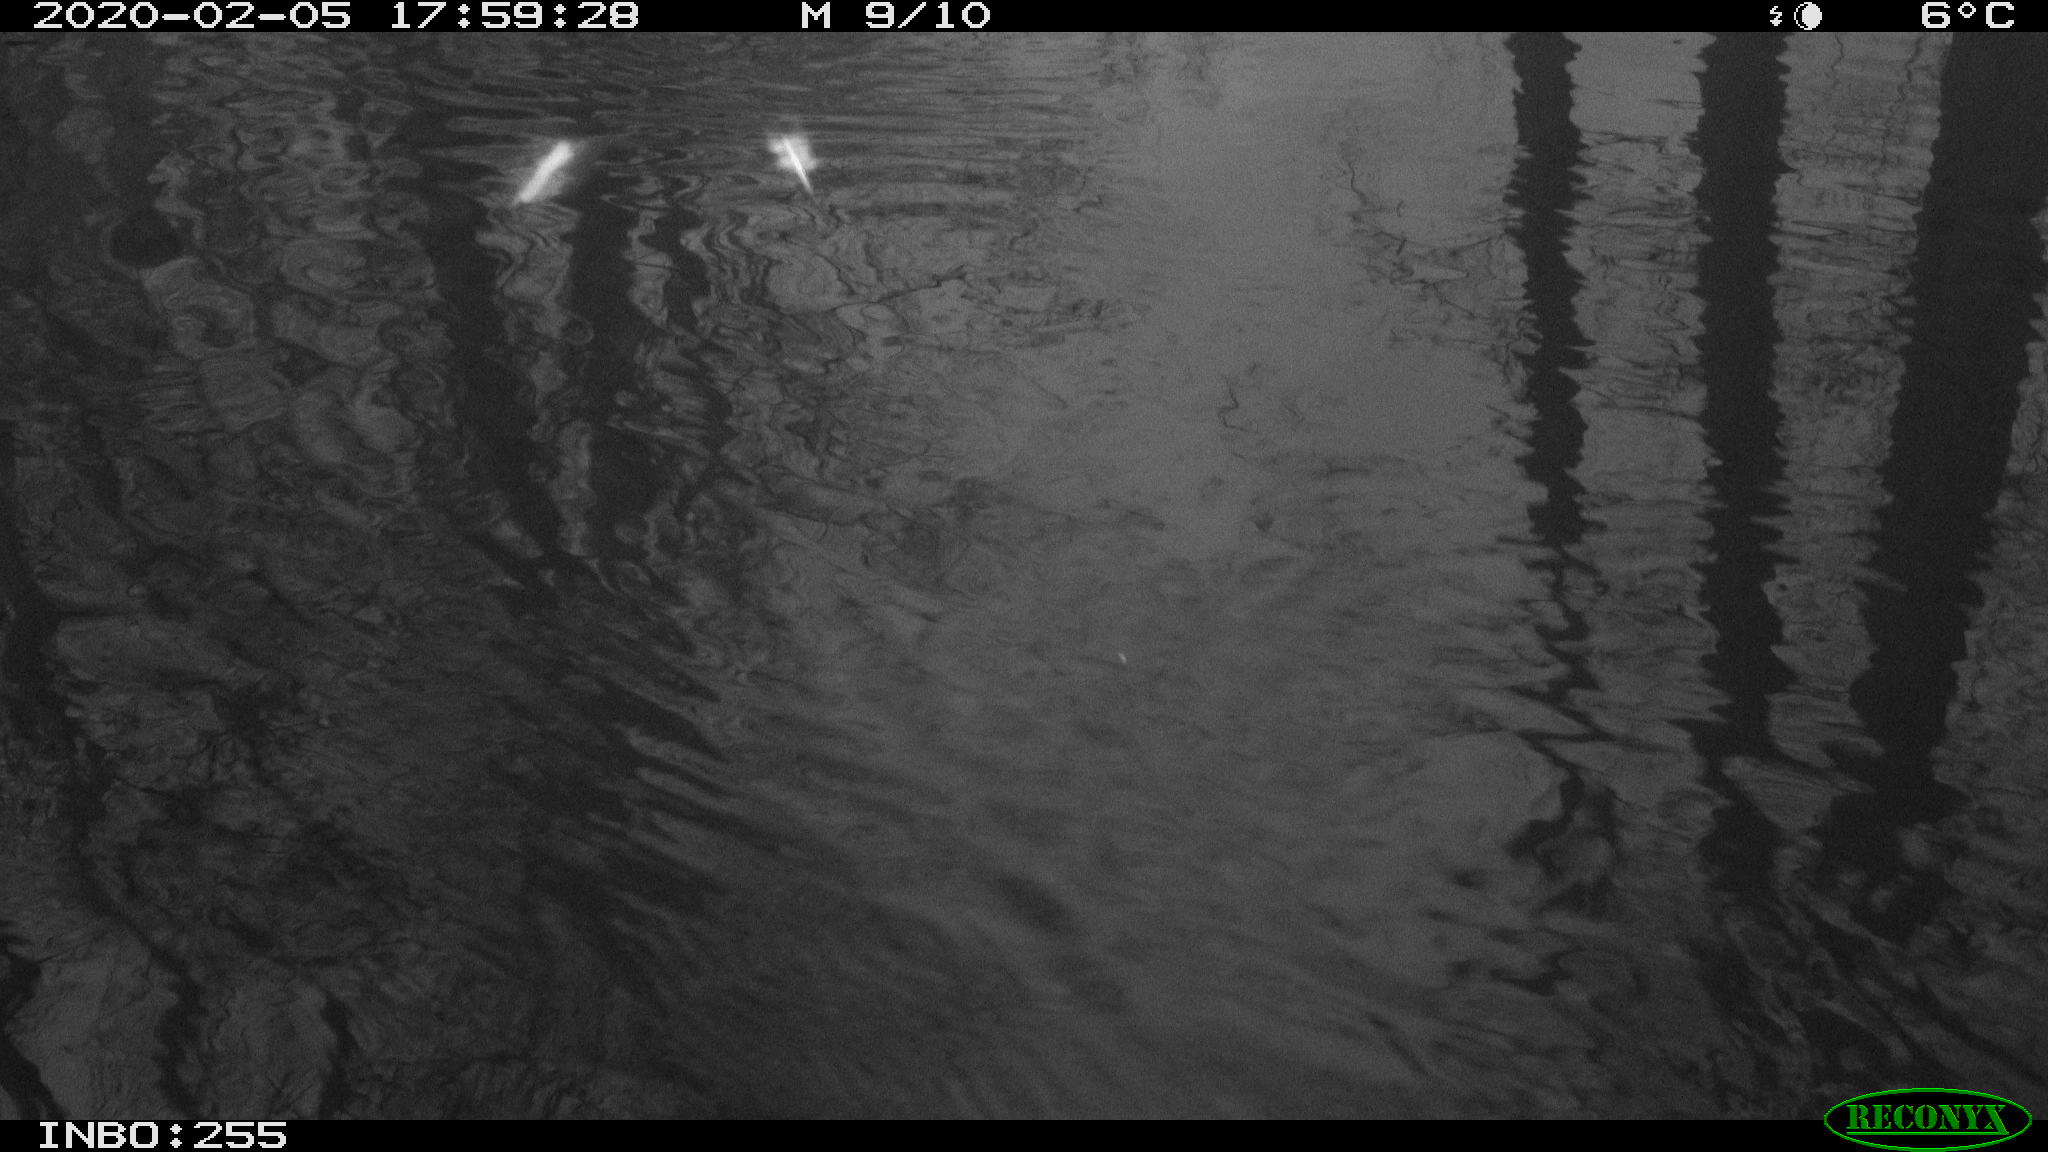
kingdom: Animalia
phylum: Chordata
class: Aves
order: Gruiformes
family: Rallidae
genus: Gallinula
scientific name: Gallinula chloropus
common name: Common moorhen
